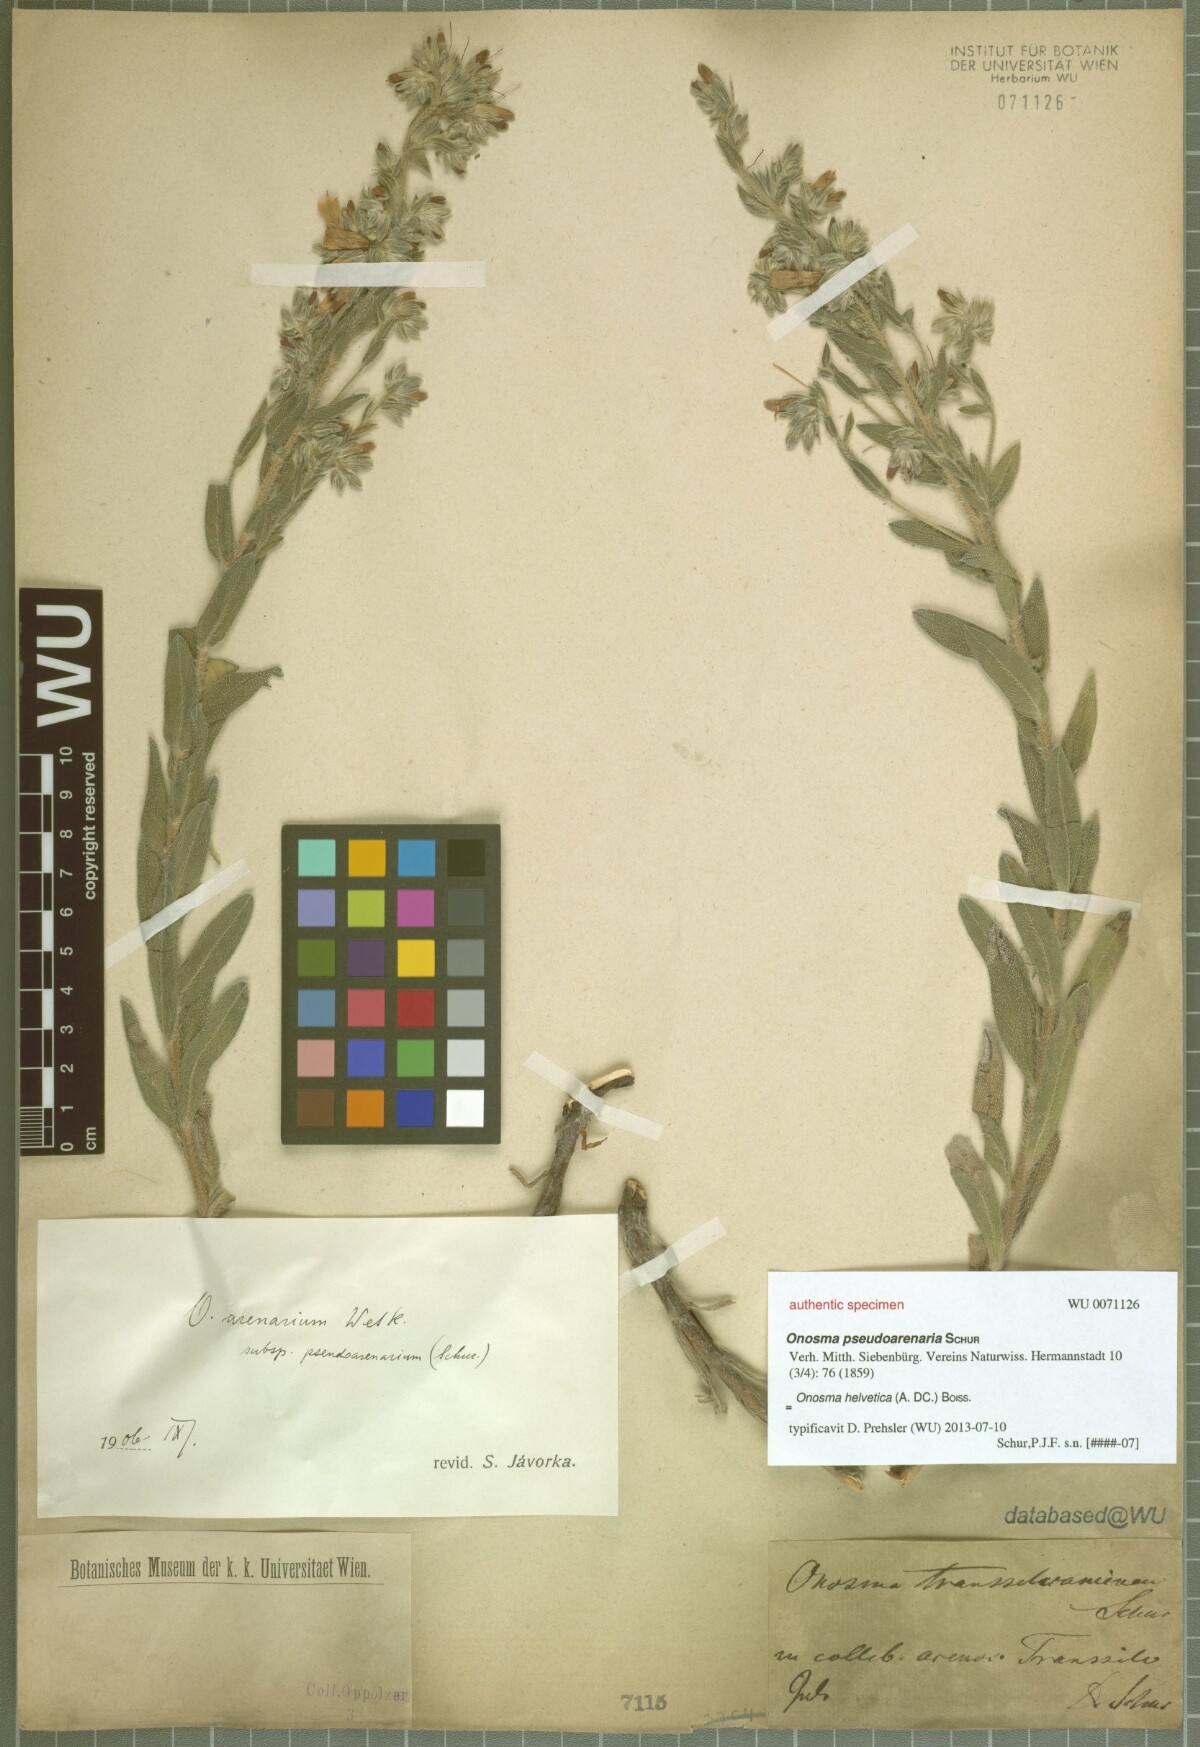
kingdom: Plantae
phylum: Tracheophyta
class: Magnoliopsida
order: Boraginales
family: Boraginaceae
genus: Onosma
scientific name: Onosma pseudoarenaria
